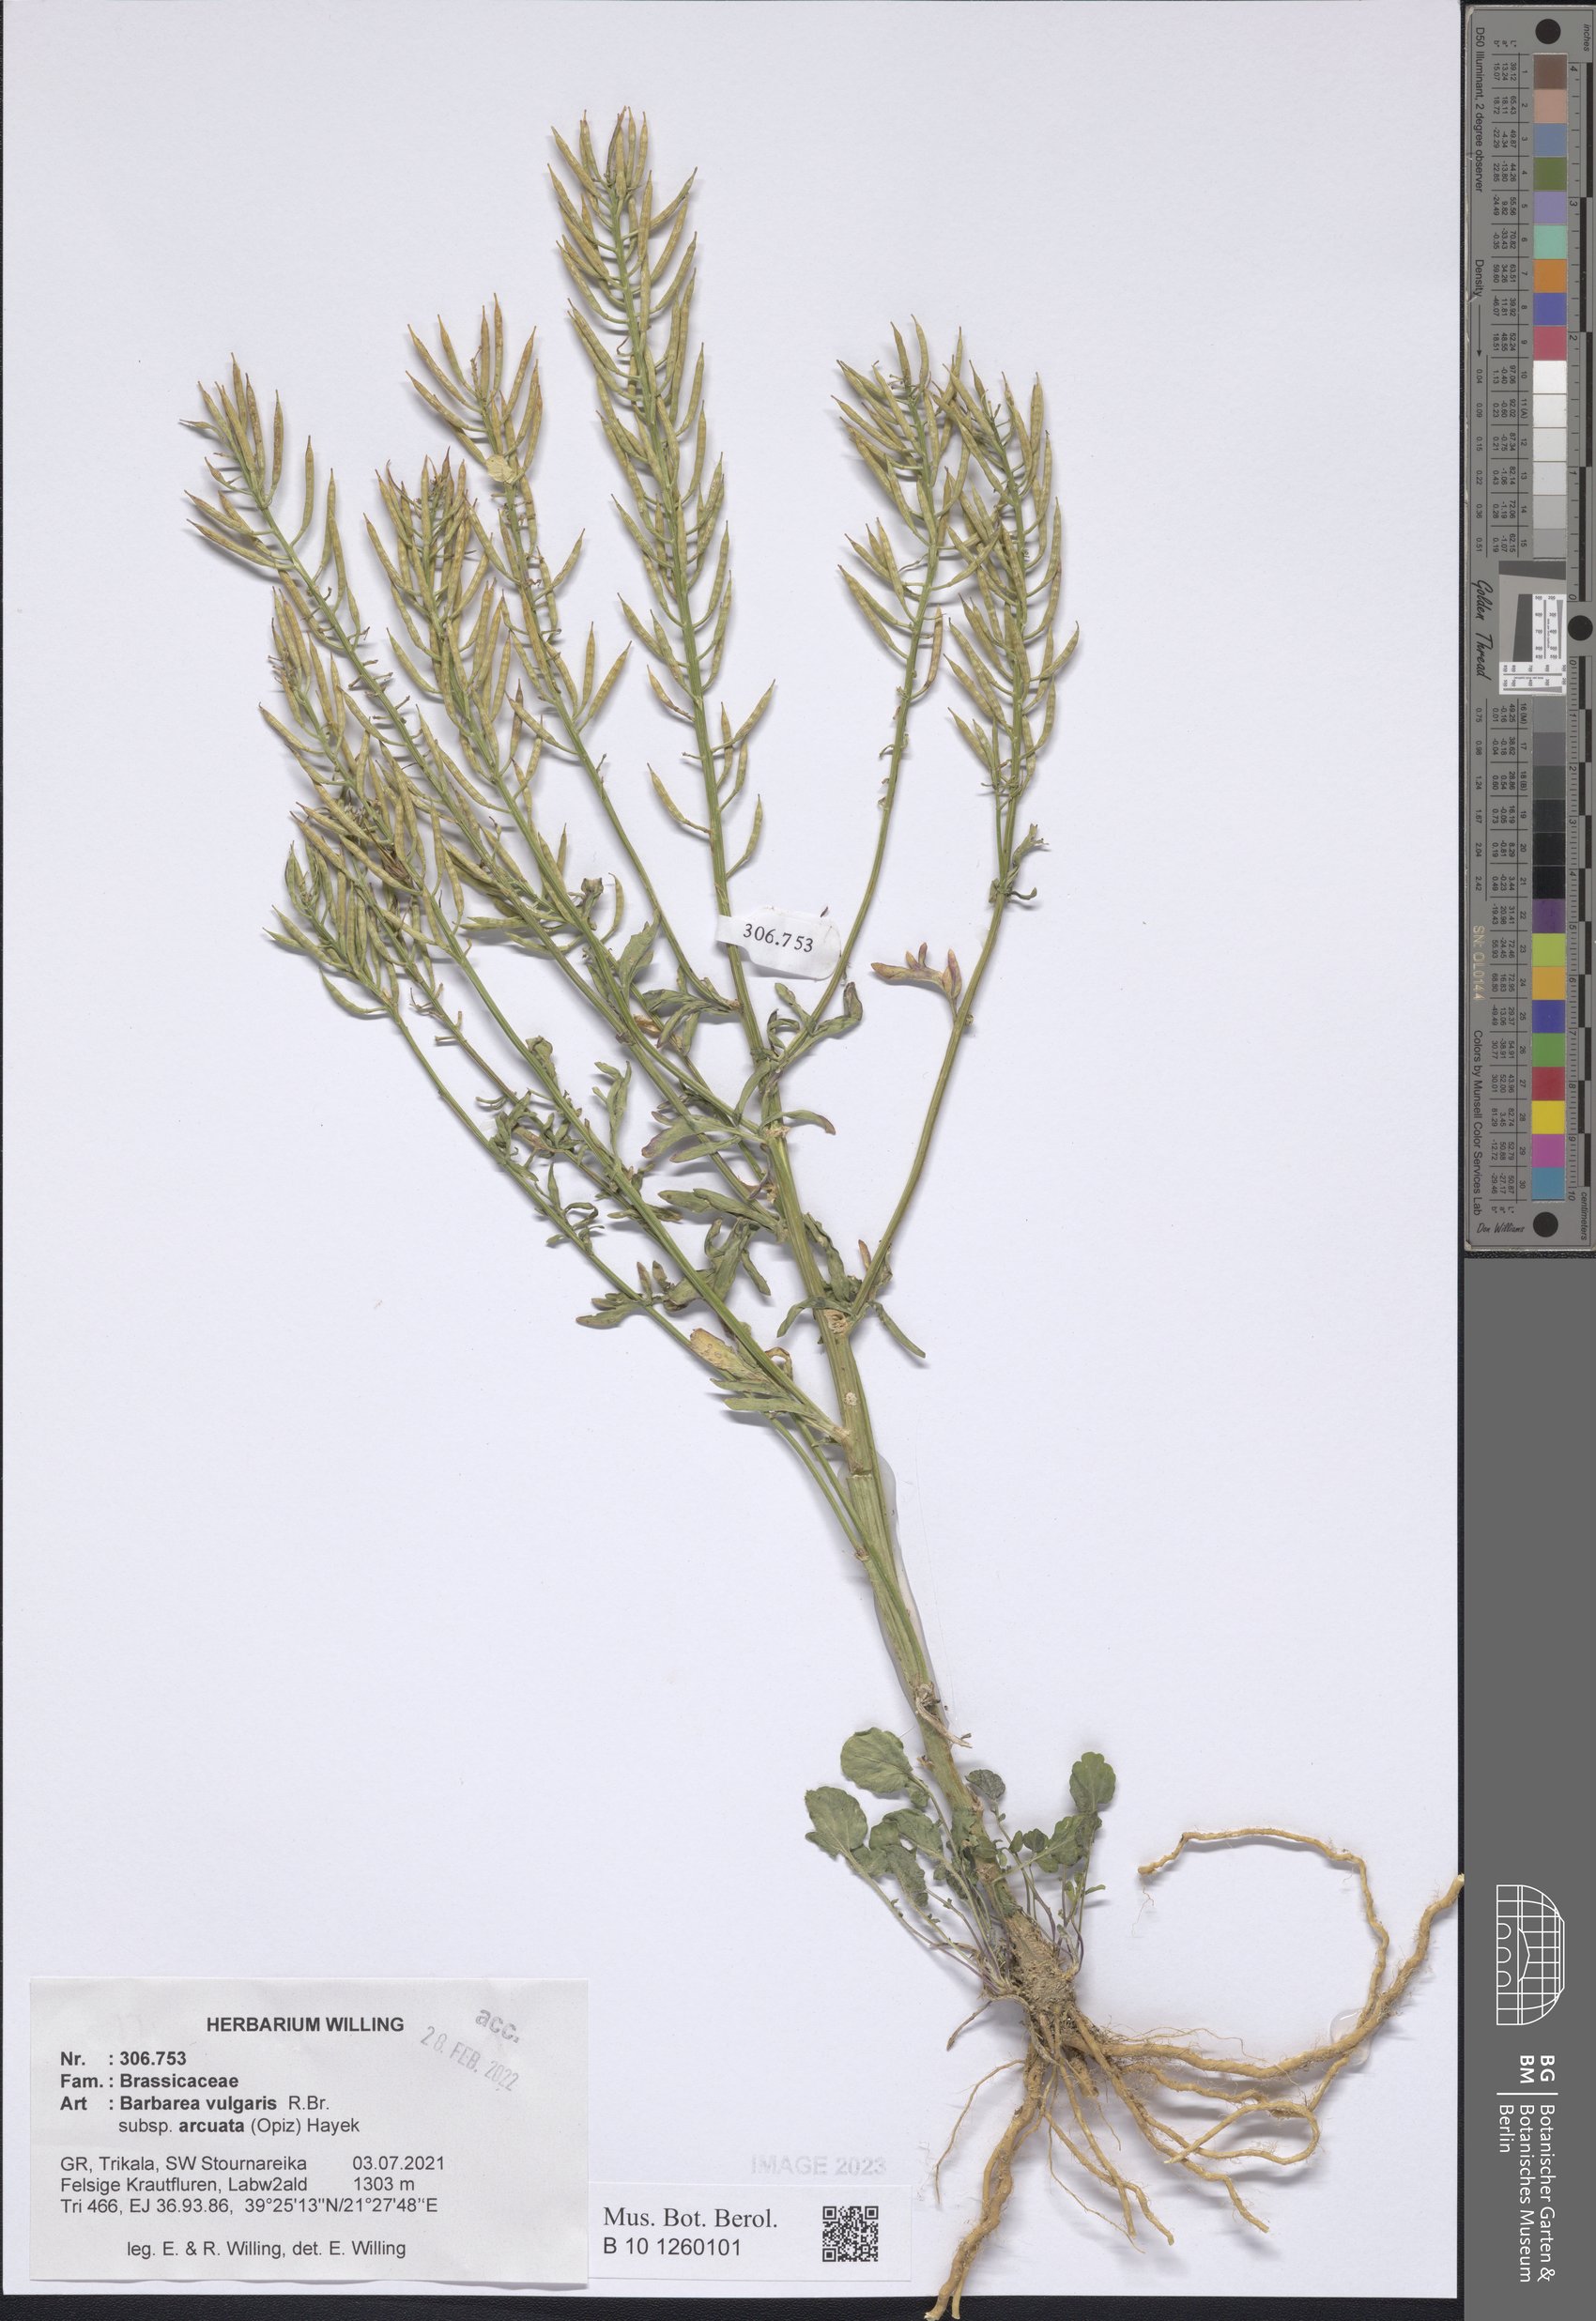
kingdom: Plantae
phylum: Tracheophyta
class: Magnoliopsida
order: Brassicales
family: Brassicaceae
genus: Barbarea
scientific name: Barbarea vulgaris
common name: Cressy-greens
